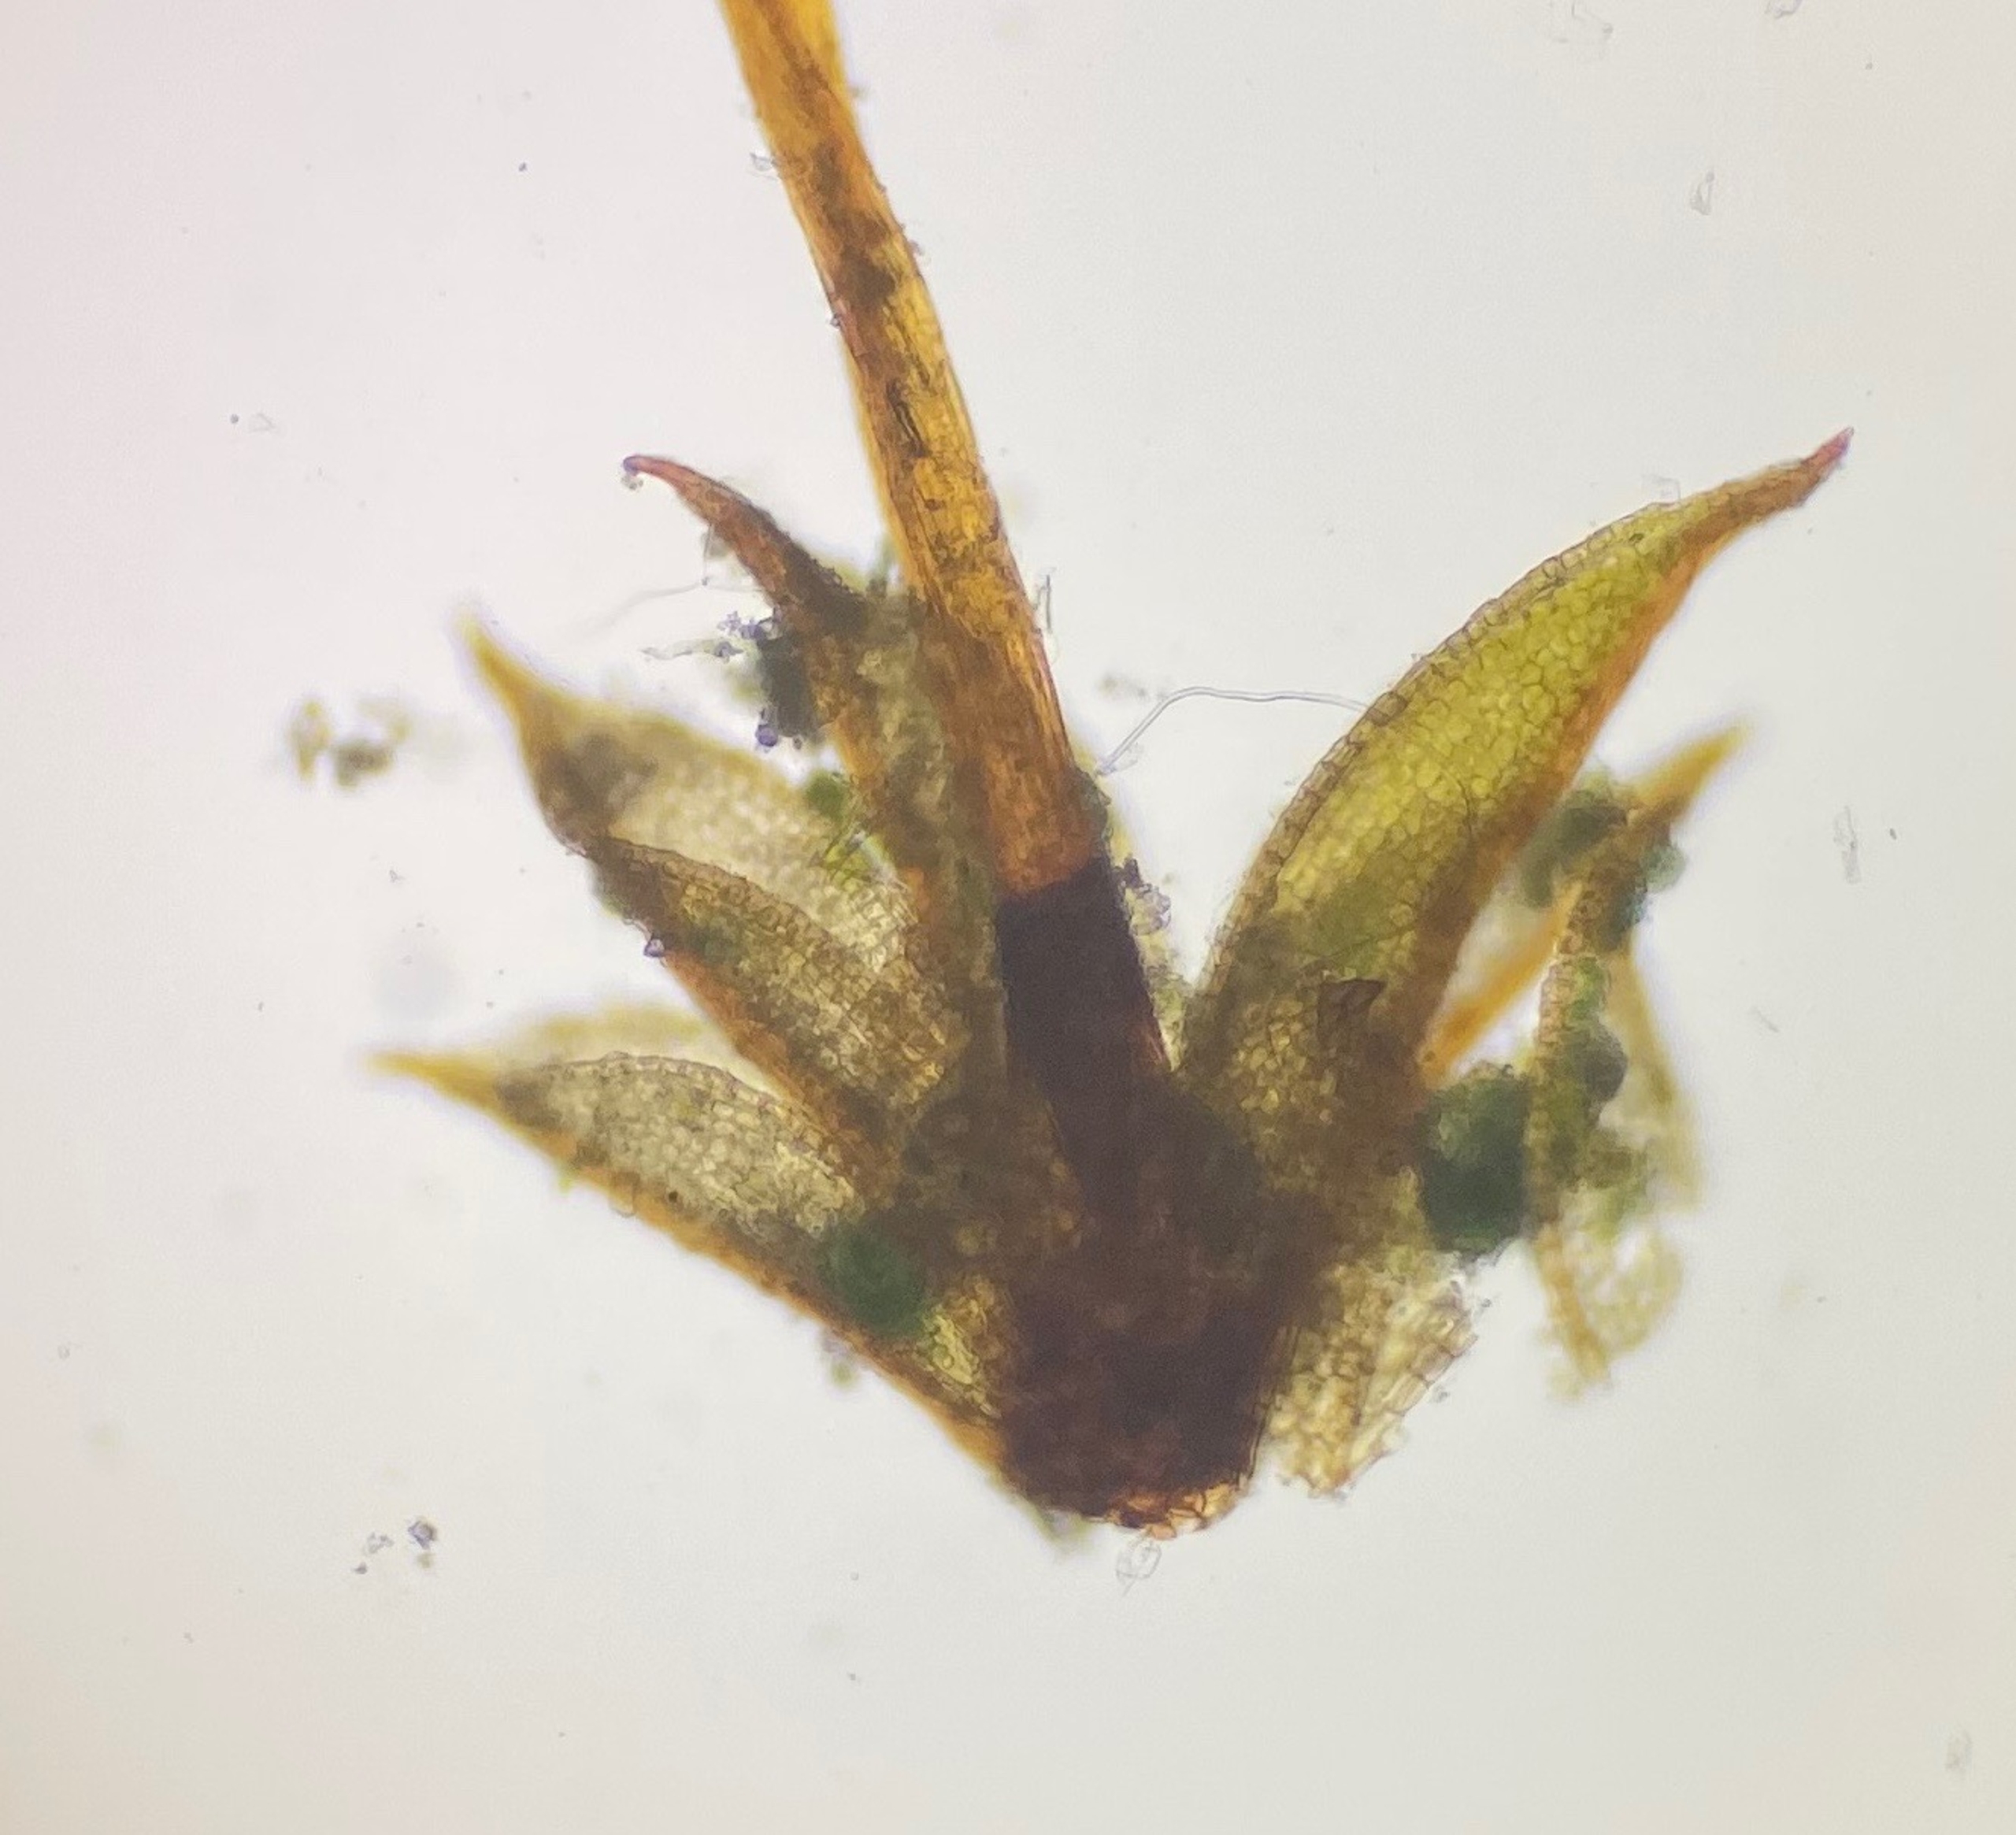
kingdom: Plantae
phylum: Bryophyta
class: Bryopsida
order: Pottiales
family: Pottiaceae
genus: Tortula
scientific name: Tortula truncata
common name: Vidmundet bægermos
